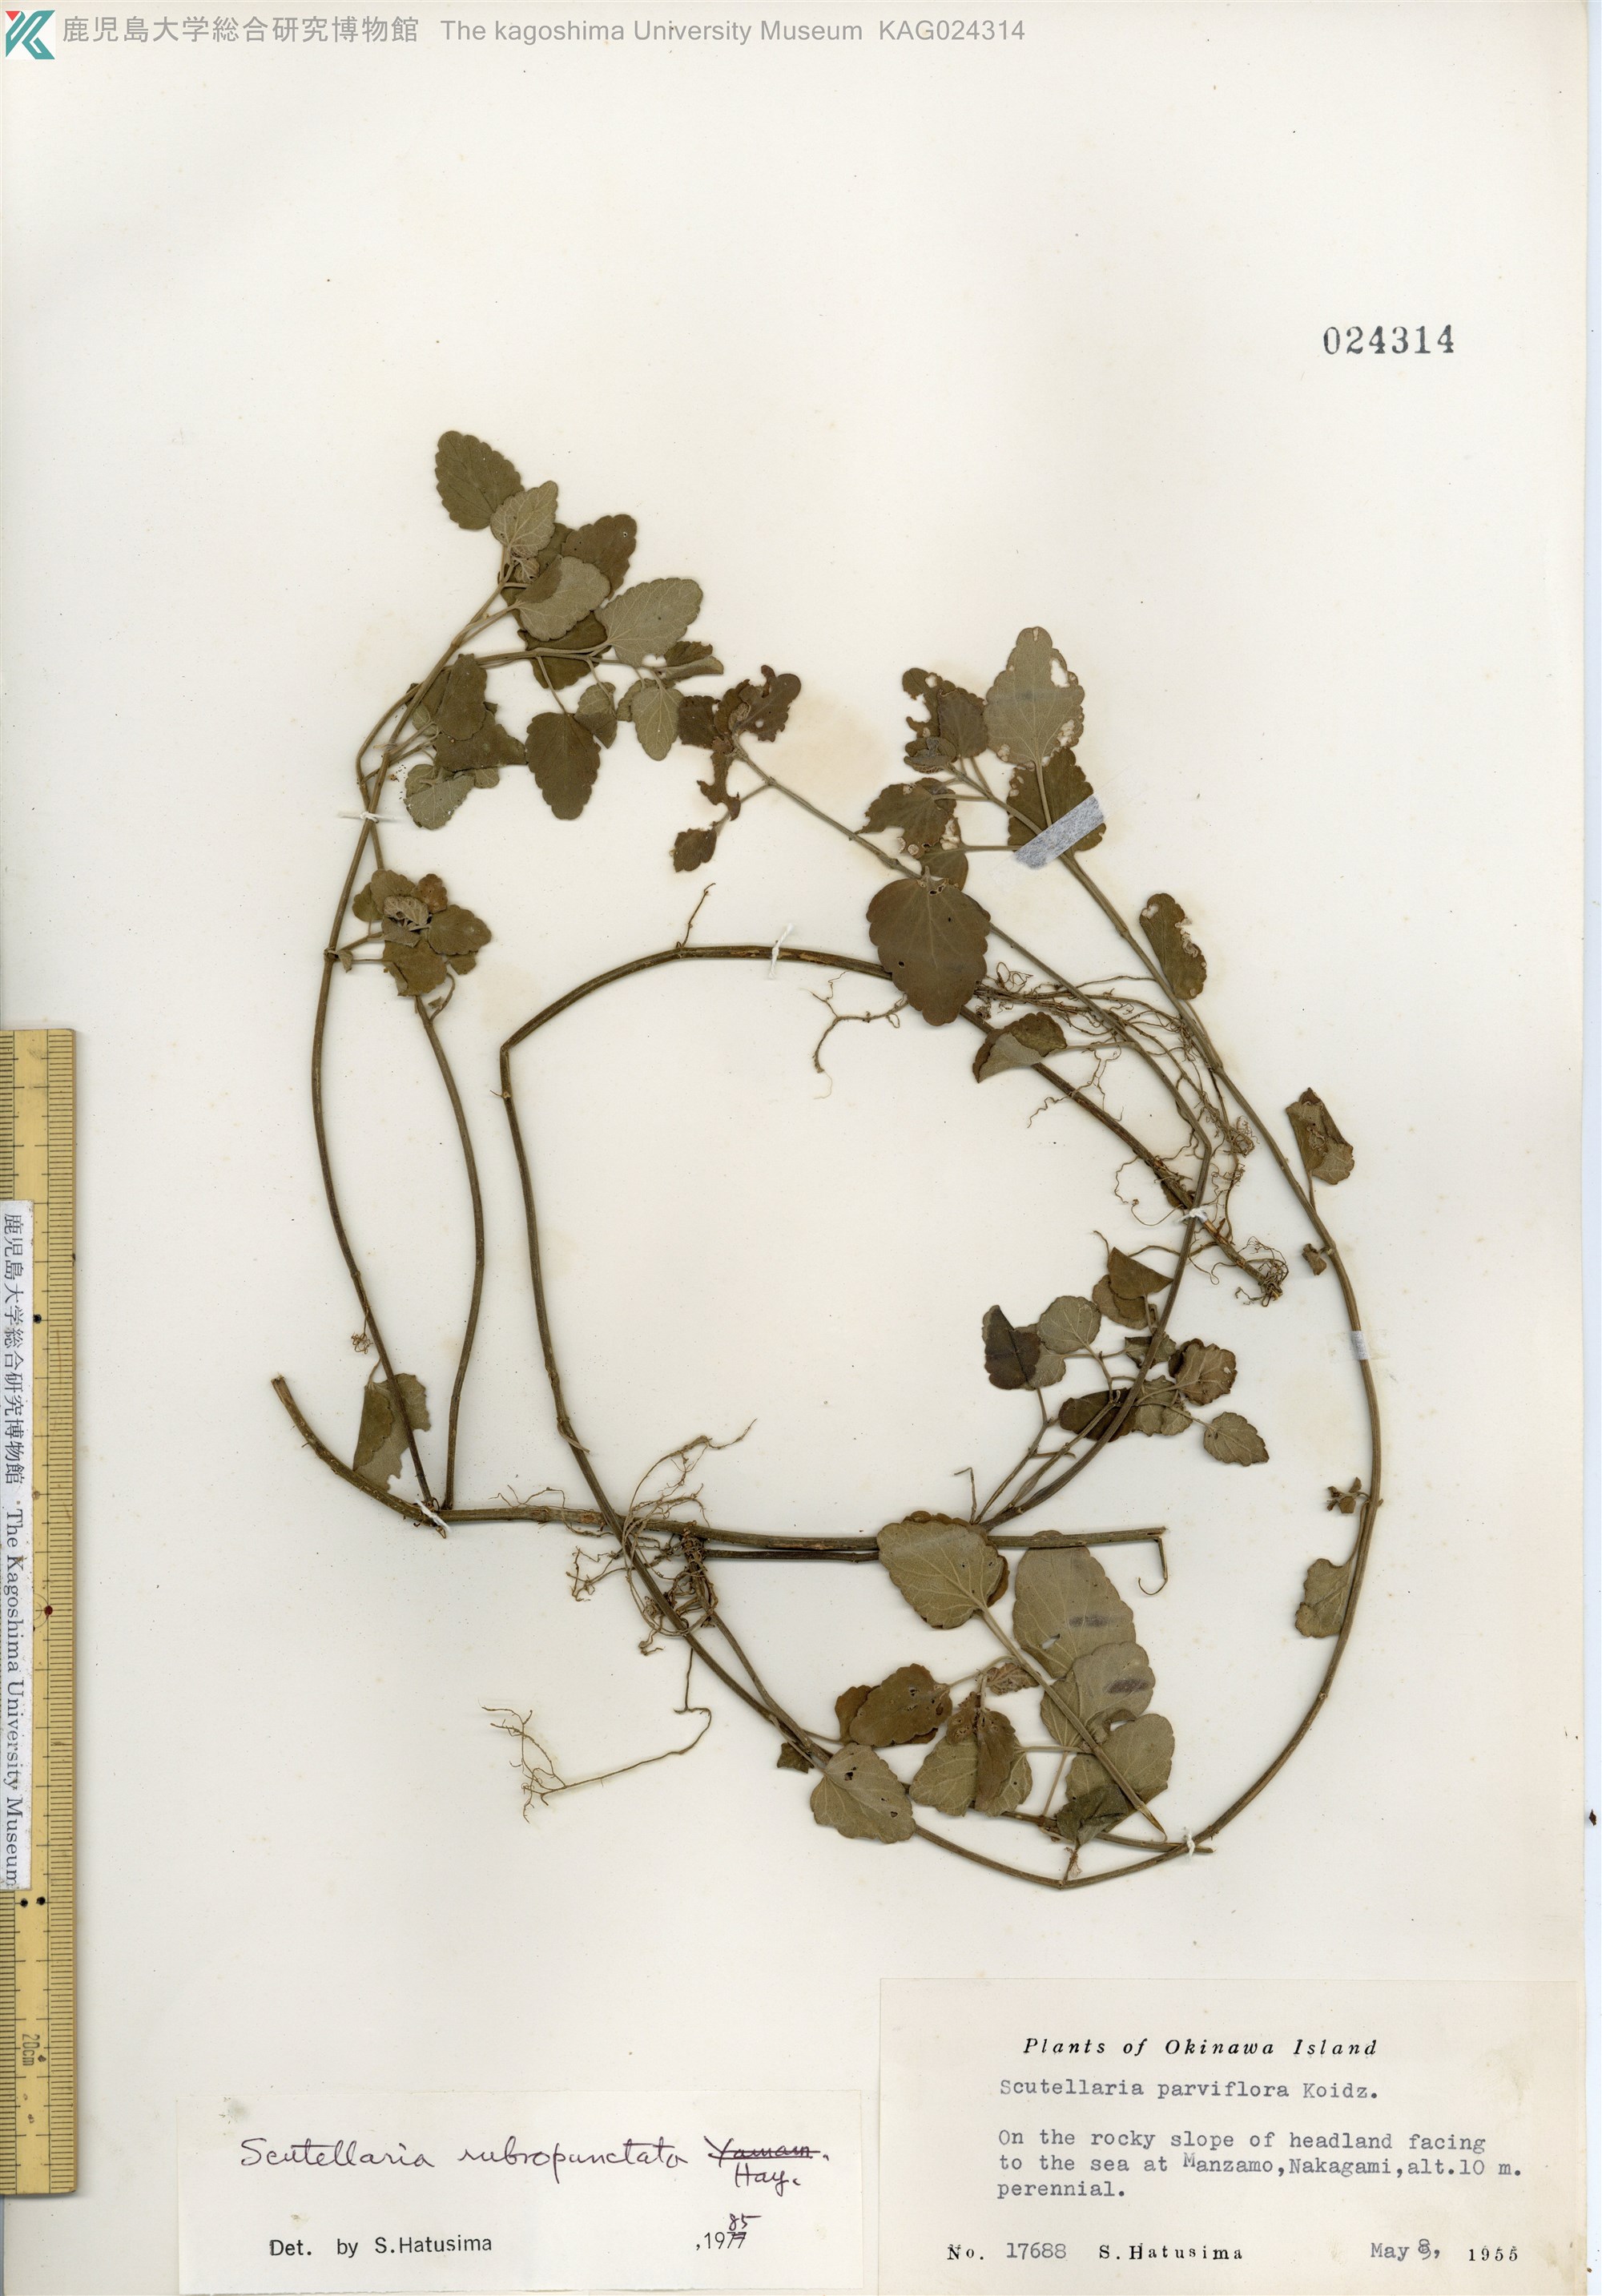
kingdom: Plantae
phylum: Tracheophyta
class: Magnoliopsida
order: Lamiales
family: Lamiaceae
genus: Scutellaria
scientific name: Scutellaria rubropunctata
